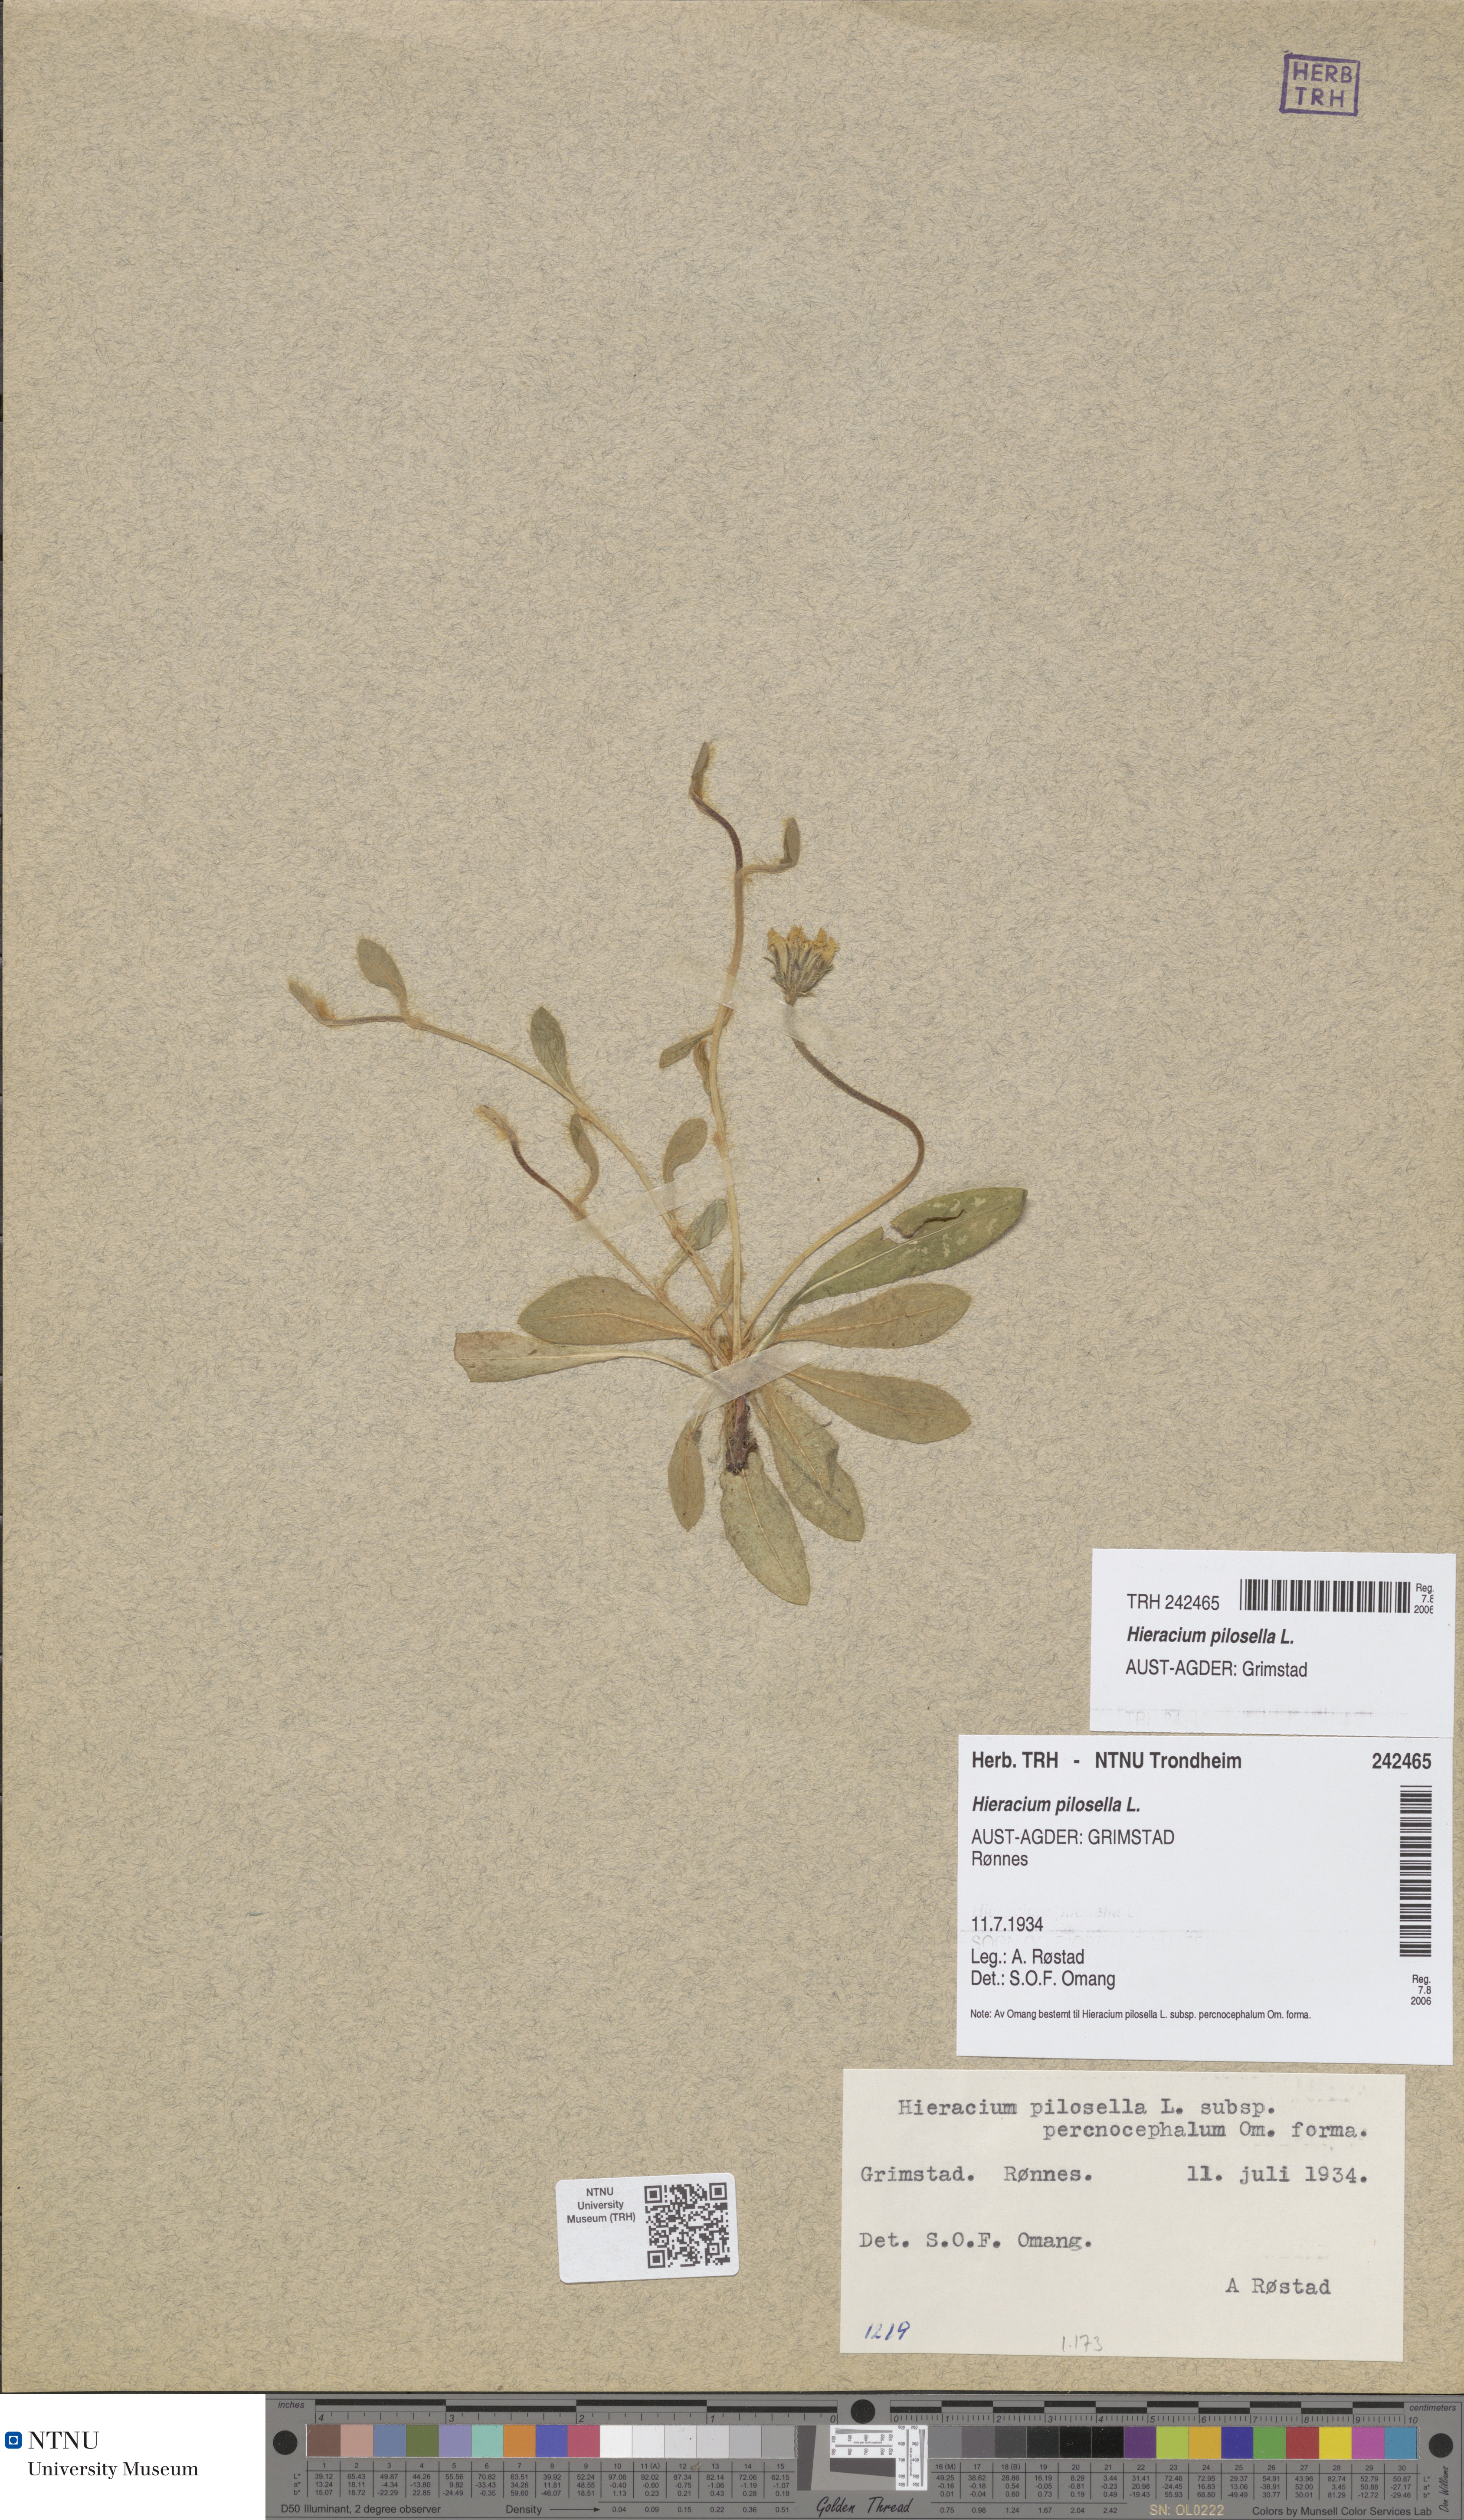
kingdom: Plantae
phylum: Tracheophyta
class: Magnoliopsida
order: Asterales
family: Asteraceae
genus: Pilosella
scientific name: Pilosella officinarum
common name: Mouse-ear hawkweed
